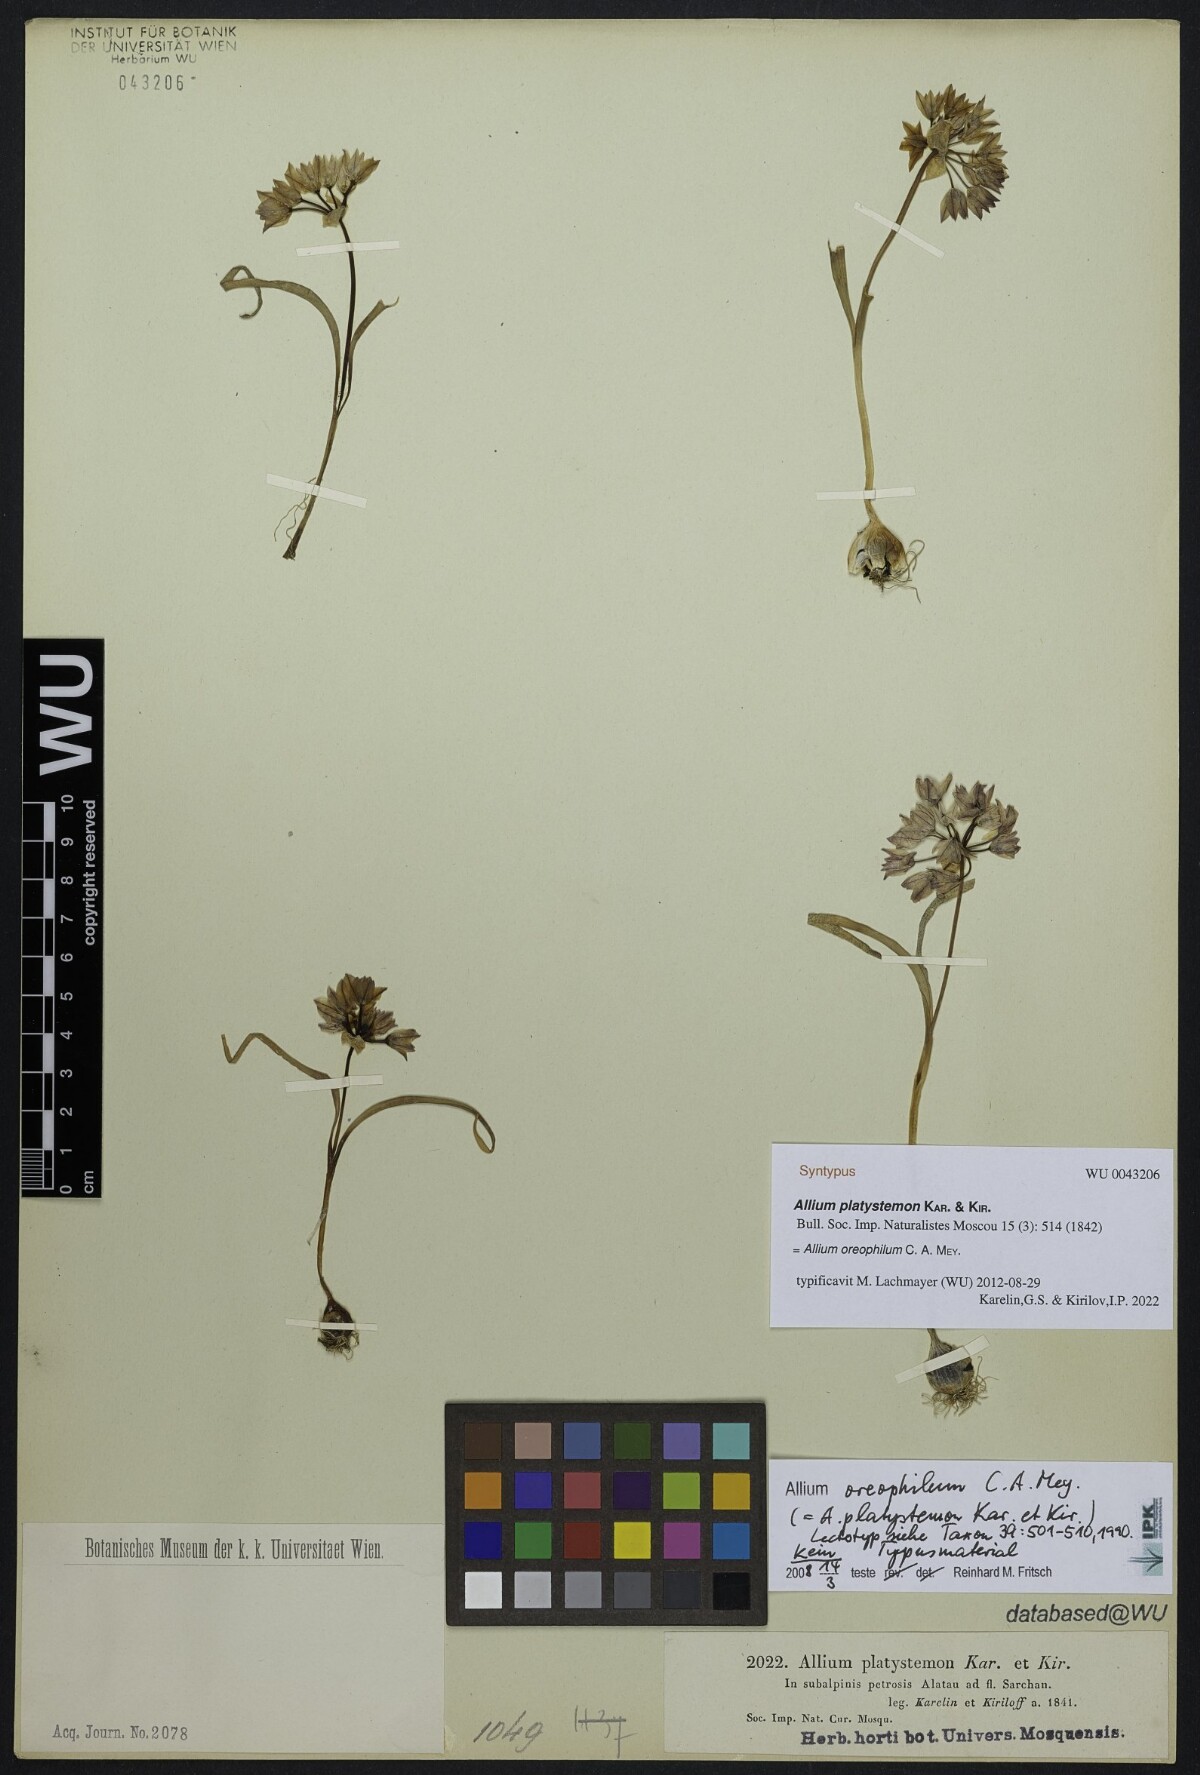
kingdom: Plantae
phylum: Tracheophyta
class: Liliopsida
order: Asparagales
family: Amaryllidaceae
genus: Allium
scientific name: Allium oreophilum
